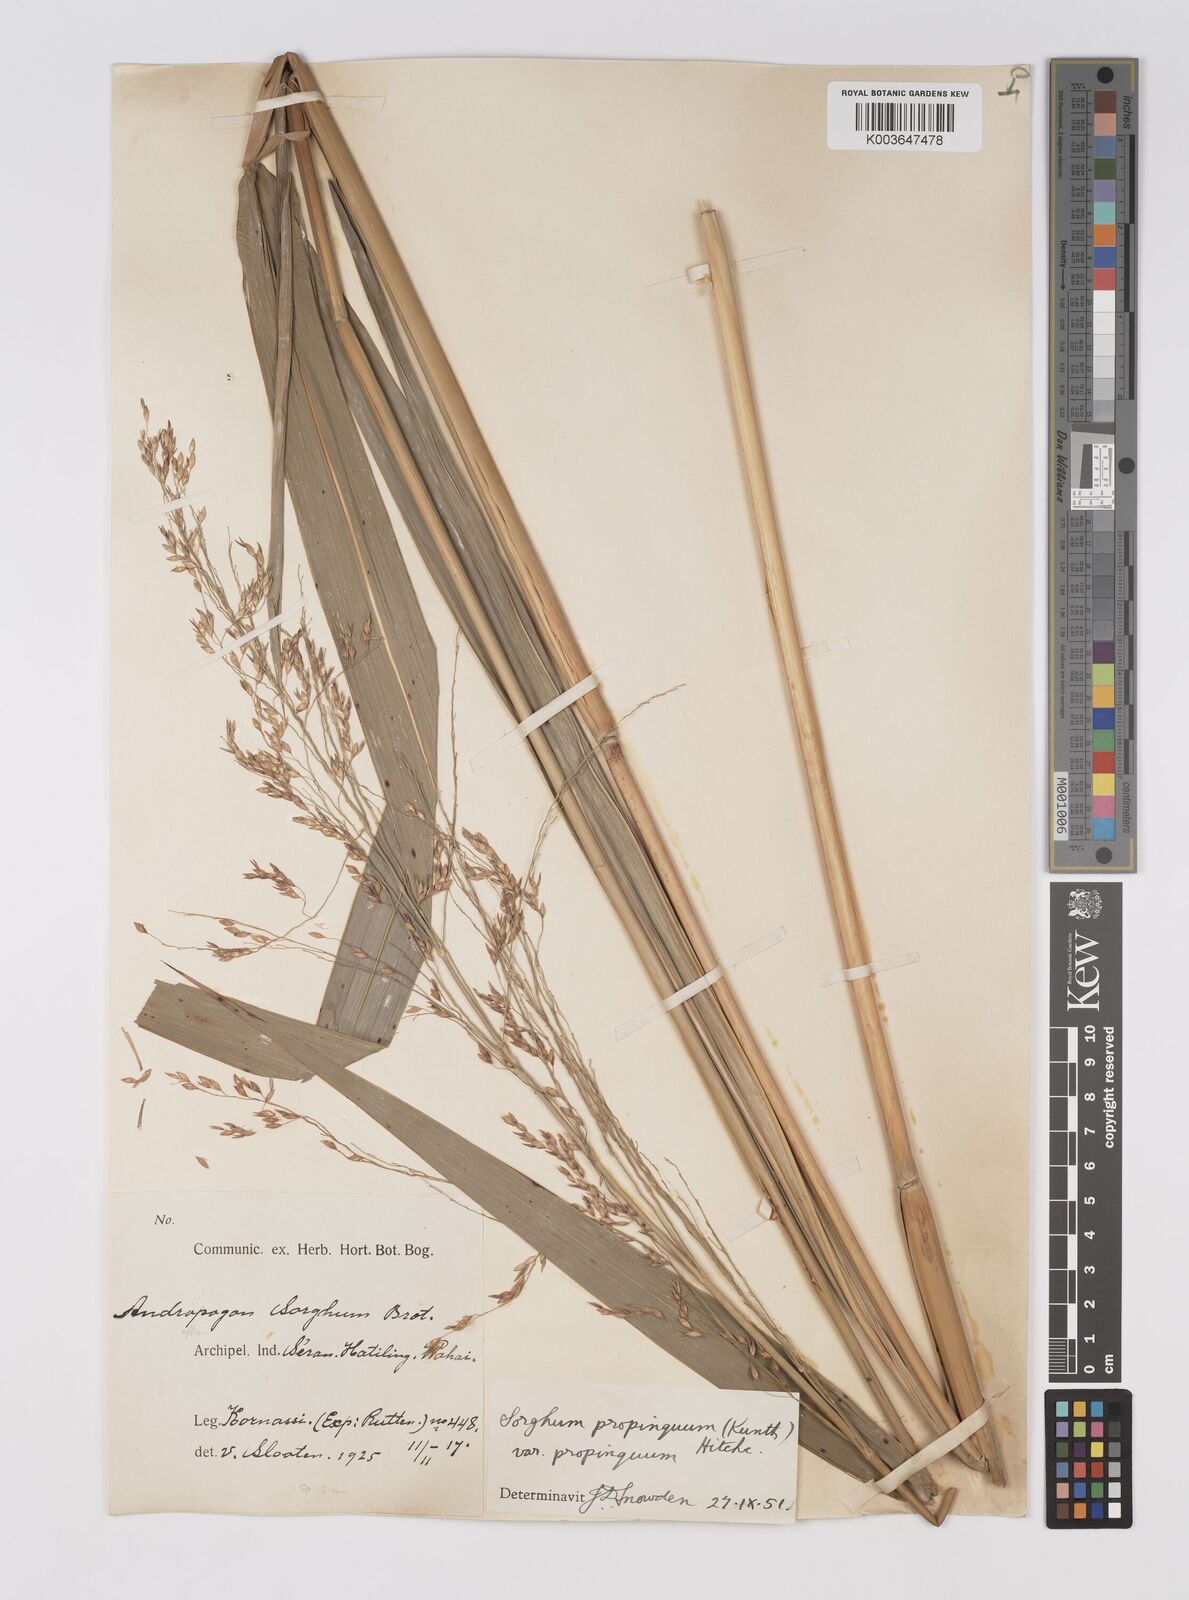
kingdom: Plantae
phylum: Tracheophyta
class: Liliopsida
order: Poales
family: Poaceae
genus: Sorghum
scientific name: Sorghum propinquum
